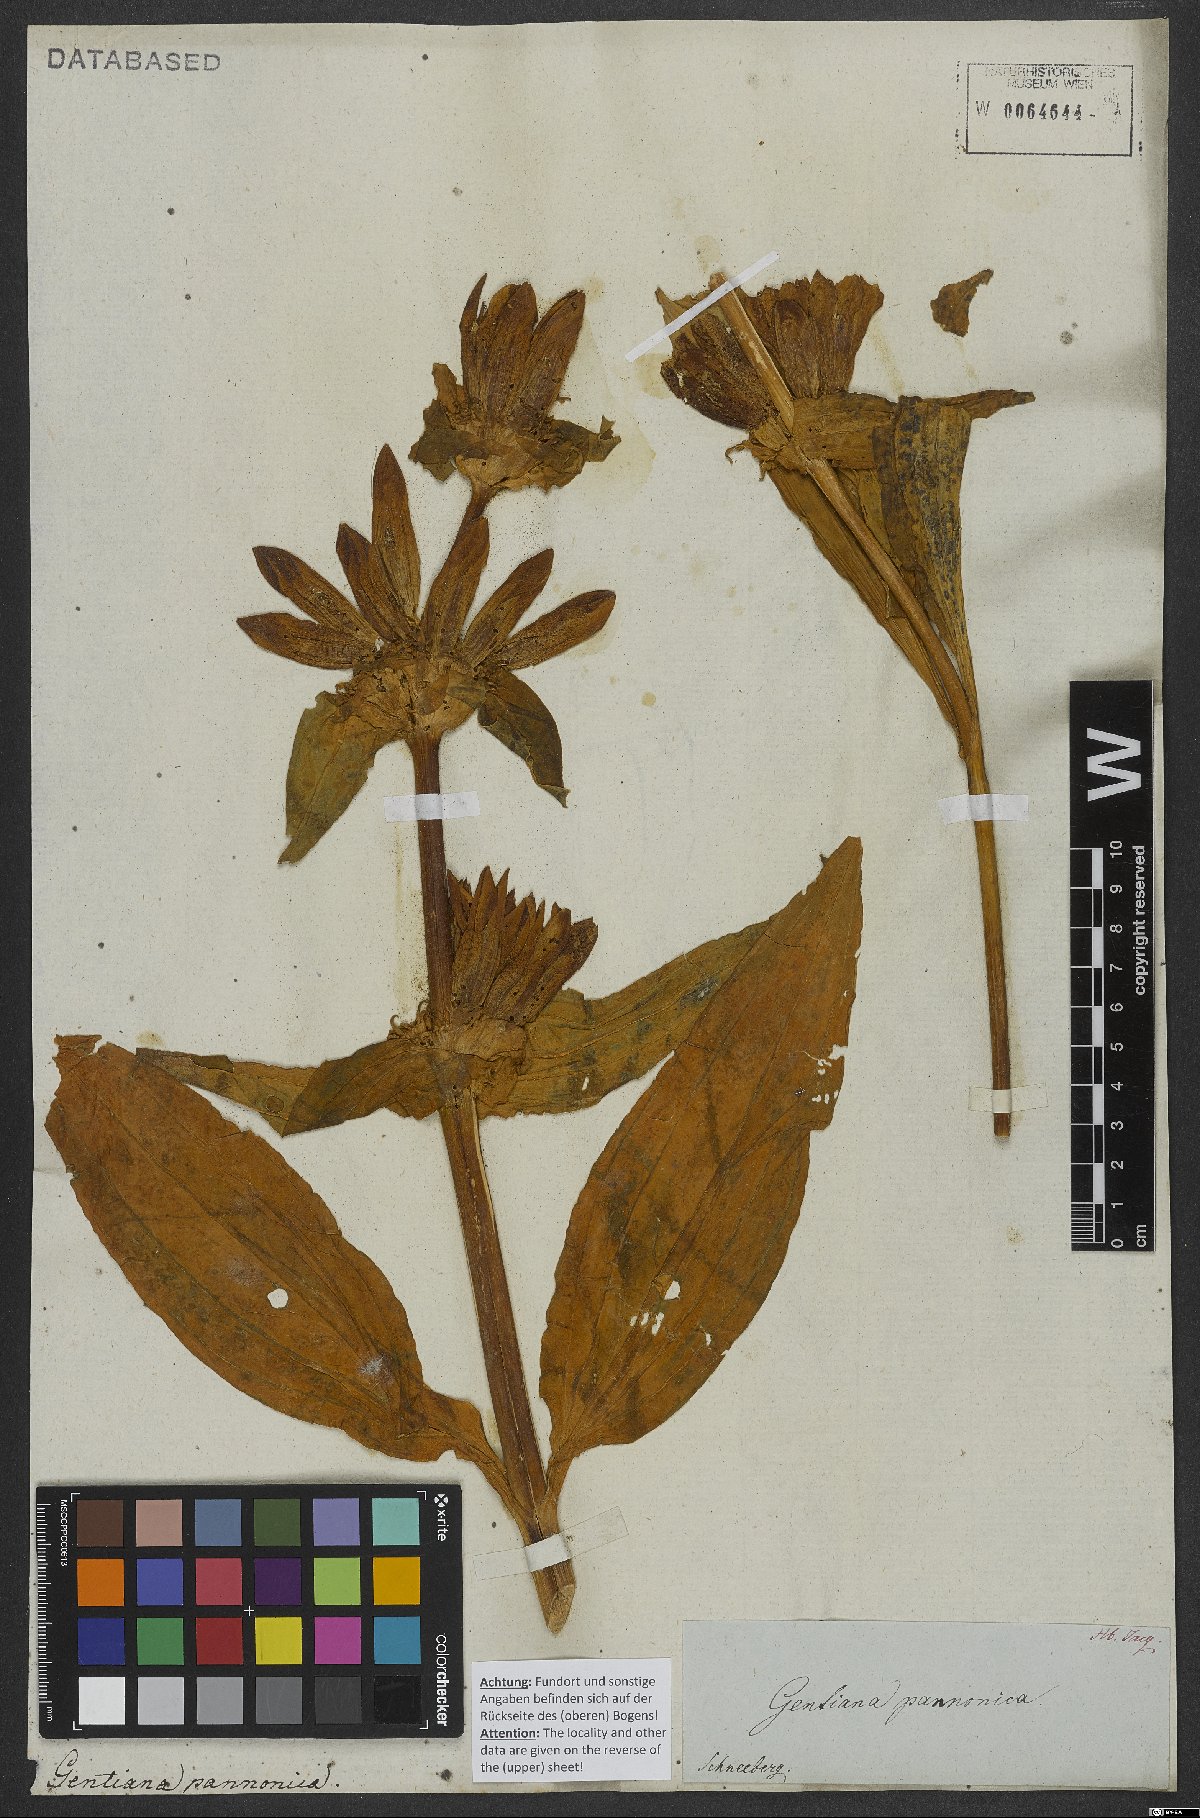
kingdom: Plantae
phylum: Tracheophyta
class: Magnoliopsida
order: Gentianales
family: Gentianaceae
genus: Gentiana
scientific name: Gentiana pannonica
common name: Hungarian gentian
